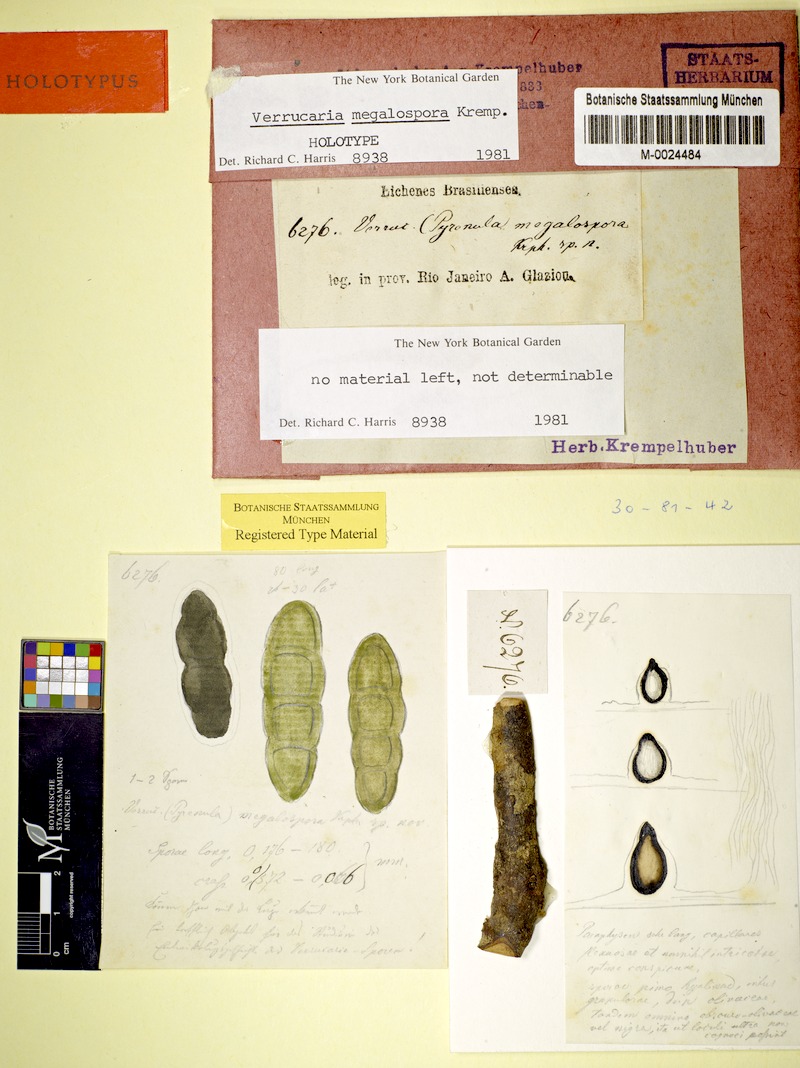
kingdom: Fungi
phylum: Ascomycota
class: Dothideomycetes
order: Trypetheliales
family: Trypetheliaceae
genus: Architrypethelium
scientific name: Architrypethelium uberinum
